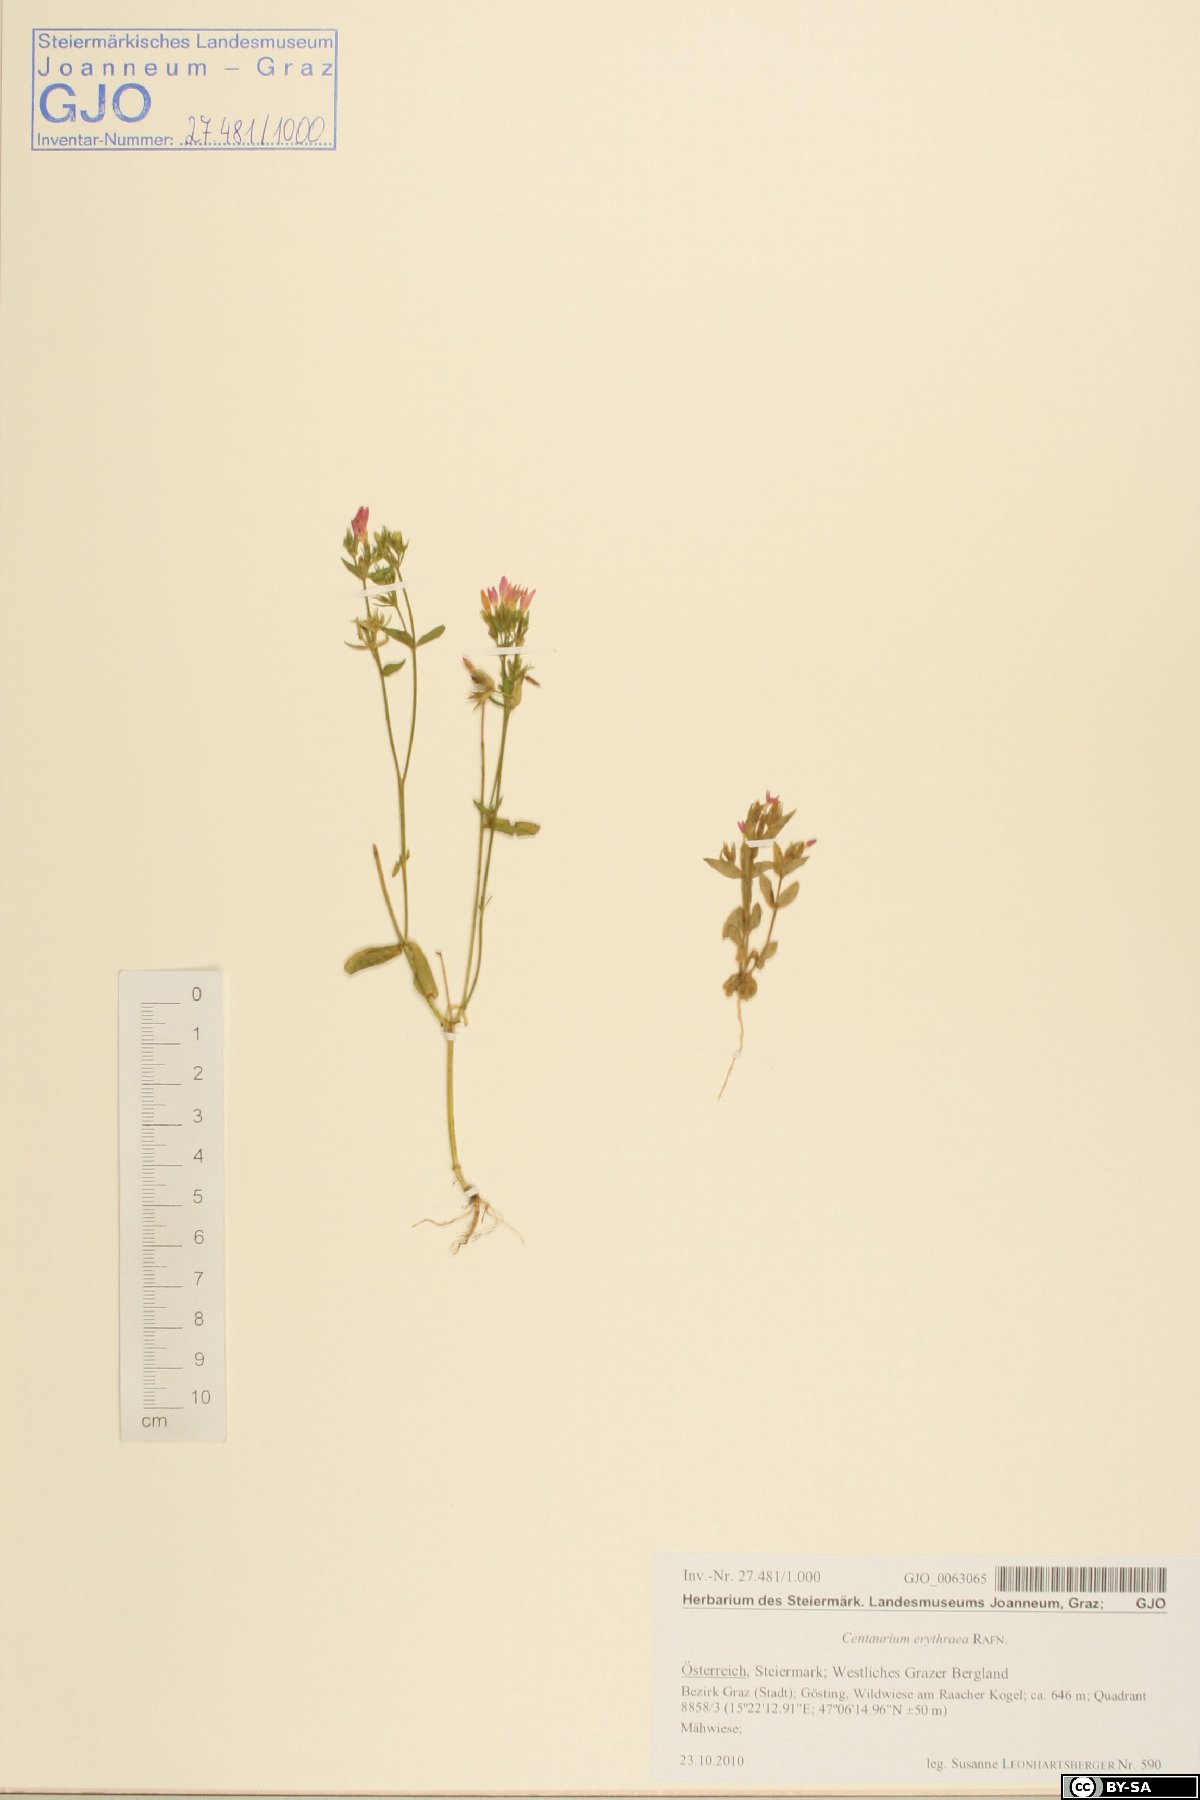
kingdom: Plantae
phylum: Tracheophyta
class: Magnoliopsida
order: Gentianales
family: Gentianaceae
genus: Centaurium
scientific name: Centaurium erythraea
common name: Common centaury
